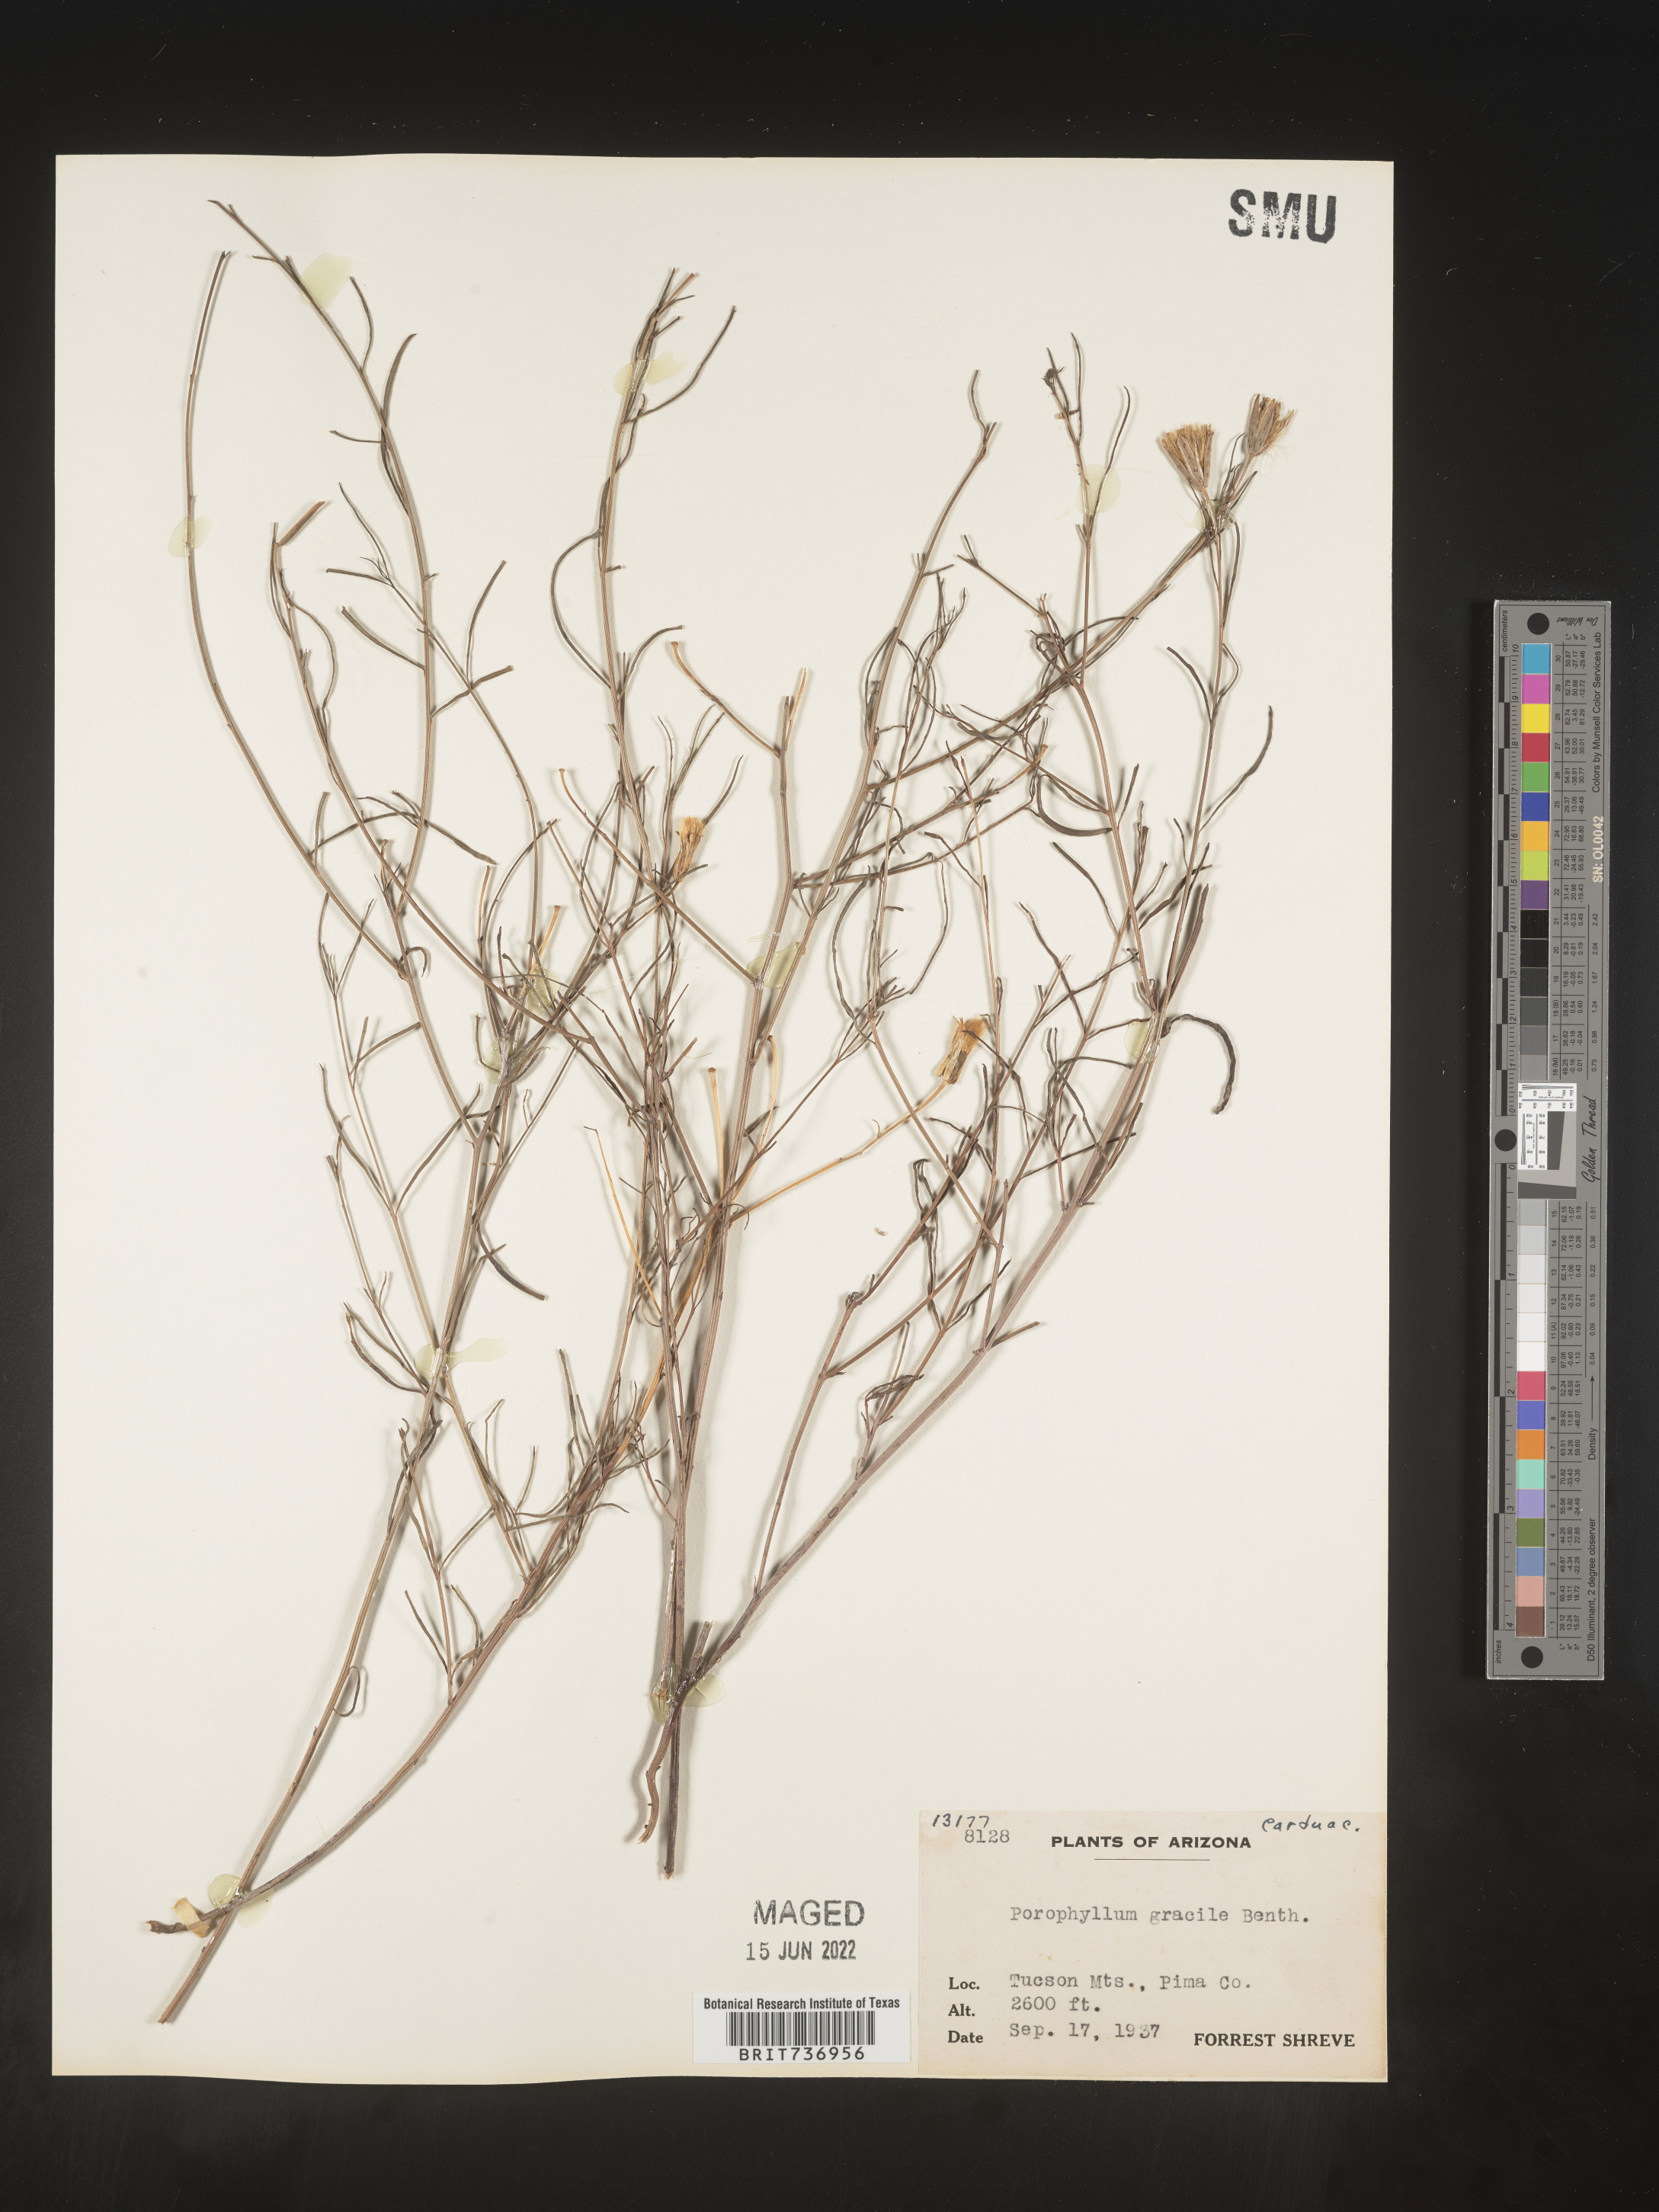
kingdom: Plantae
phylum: Tracheophyta
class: Magnoliopsida
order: Asterales
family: Asteraceae
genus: Porophyllum
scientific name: Porophyllum
